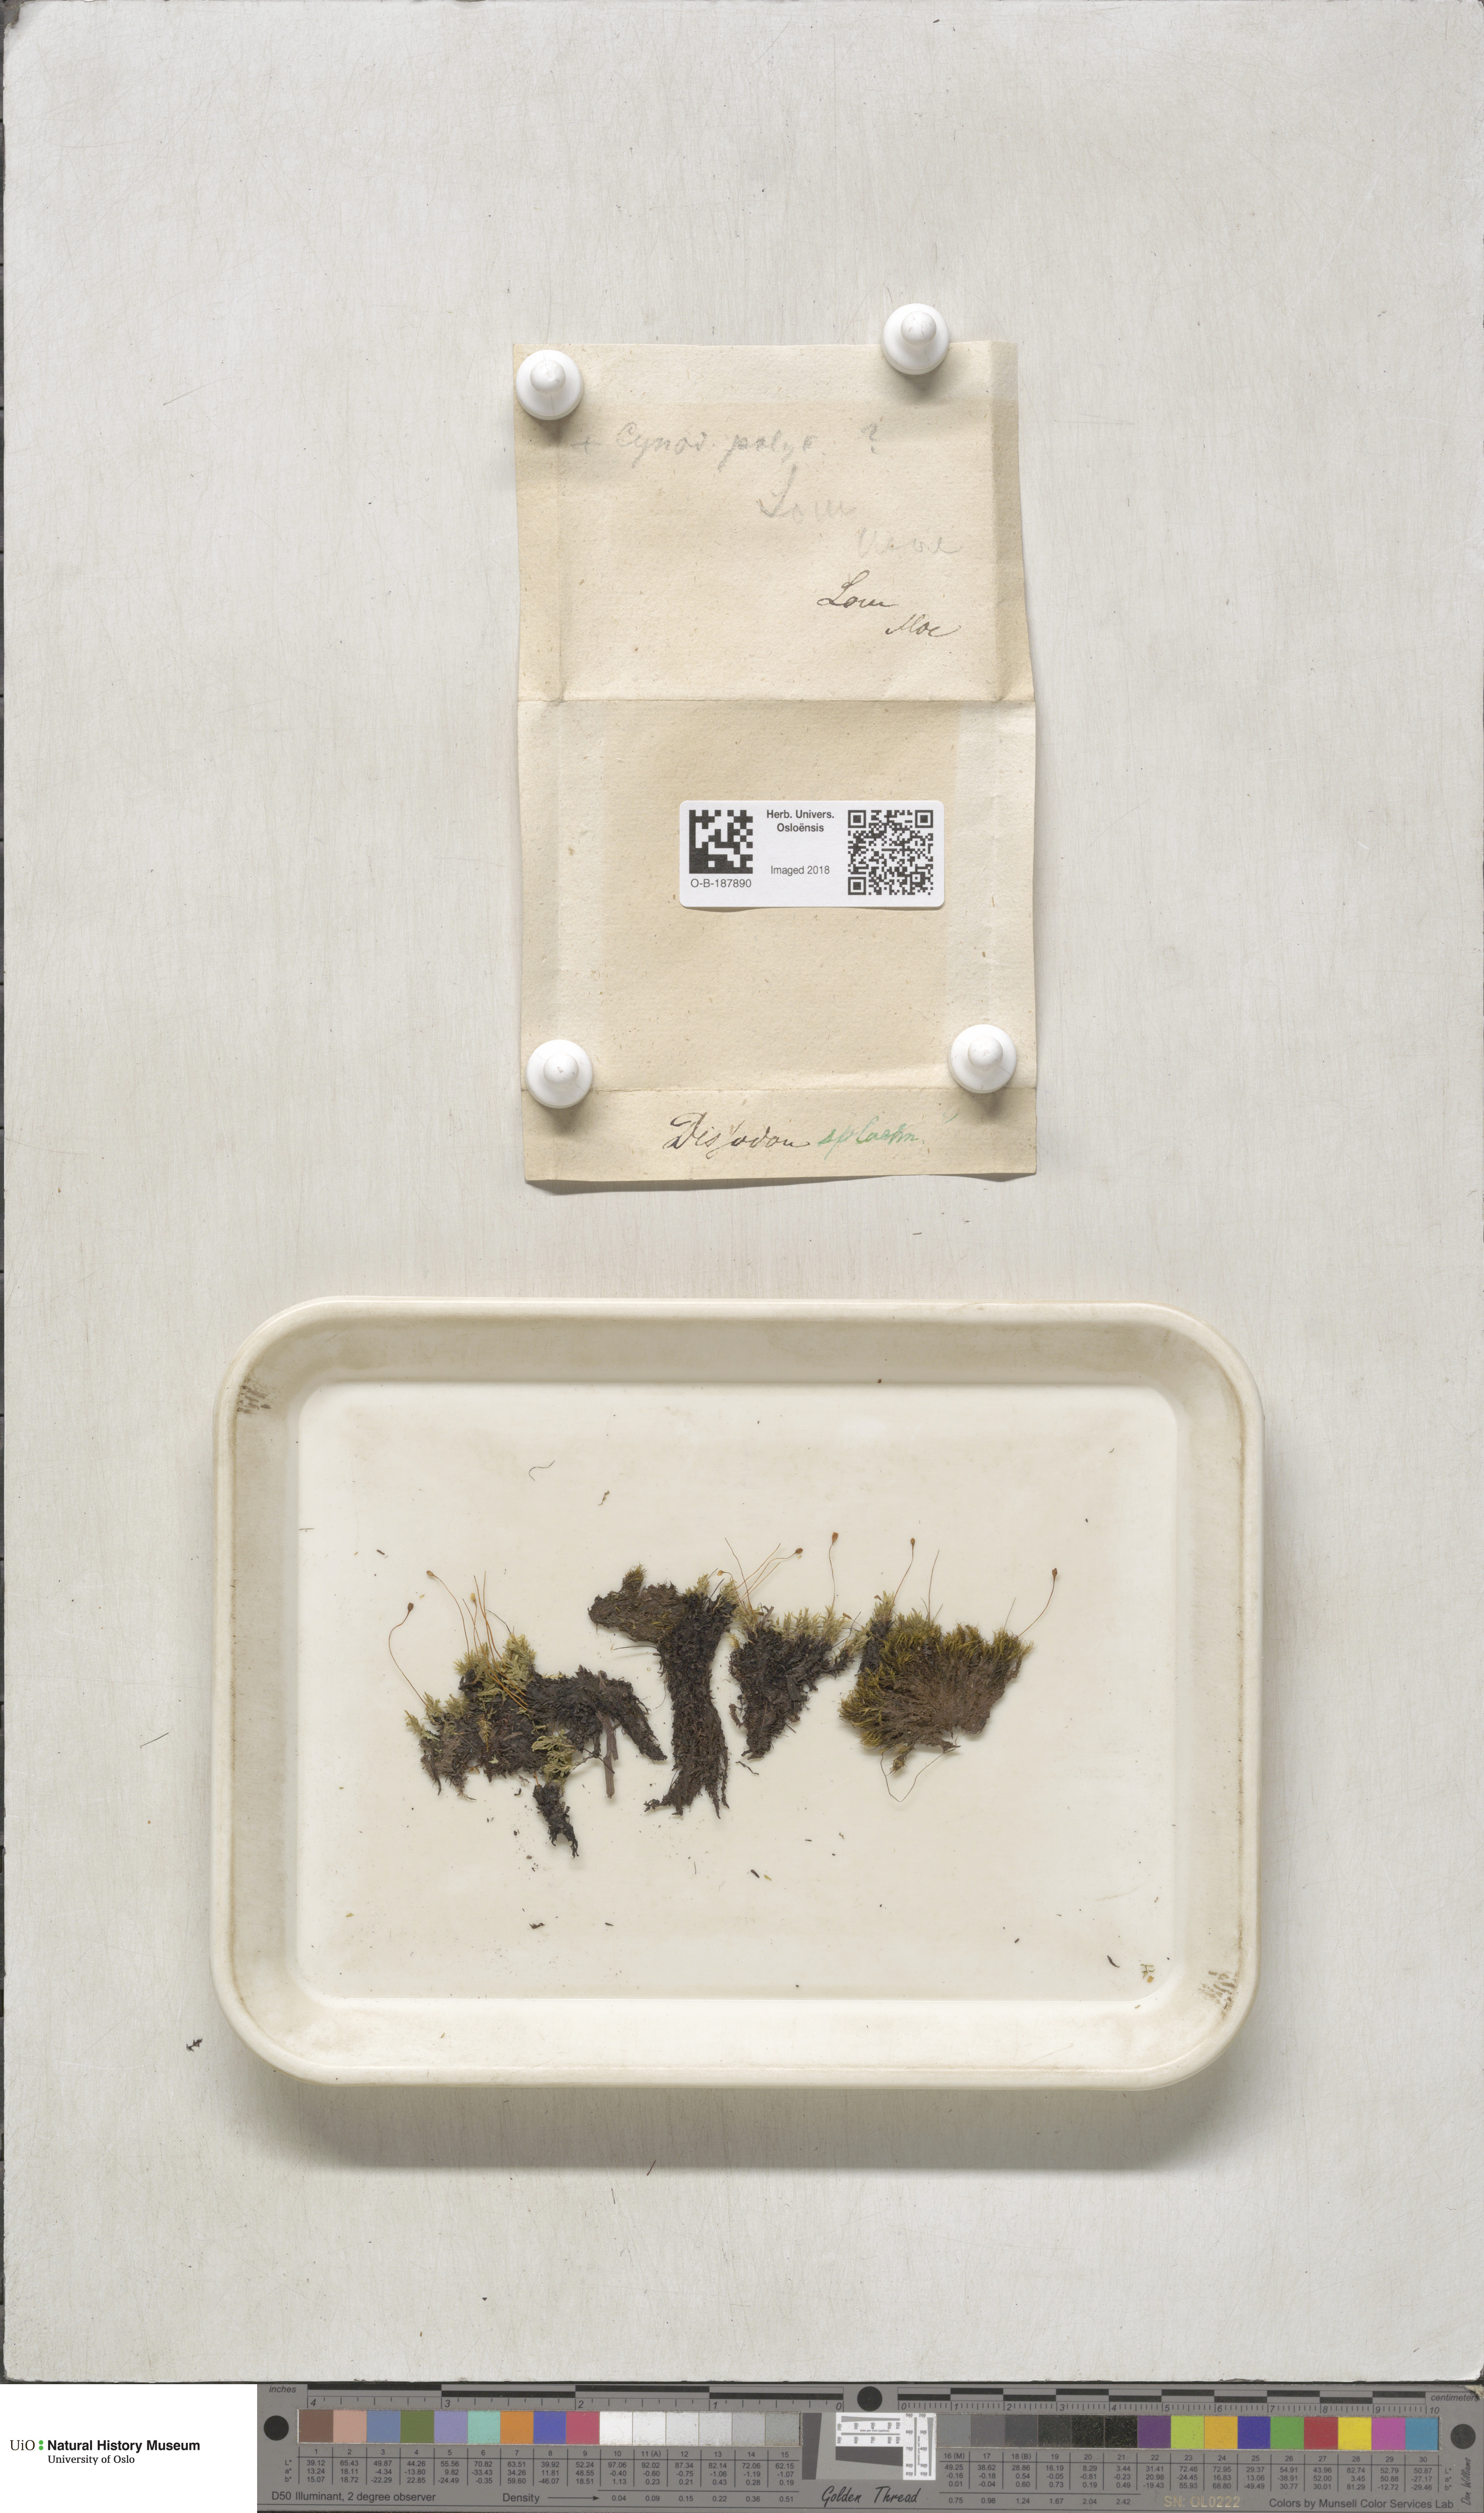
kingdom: Plantae
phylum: Bryophyta
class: Bryopsida
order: Splachnales
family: Splachnaceae
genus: Tayloria
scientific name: Tayloria lingulata
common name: Tongue-leaved trumpet moss
